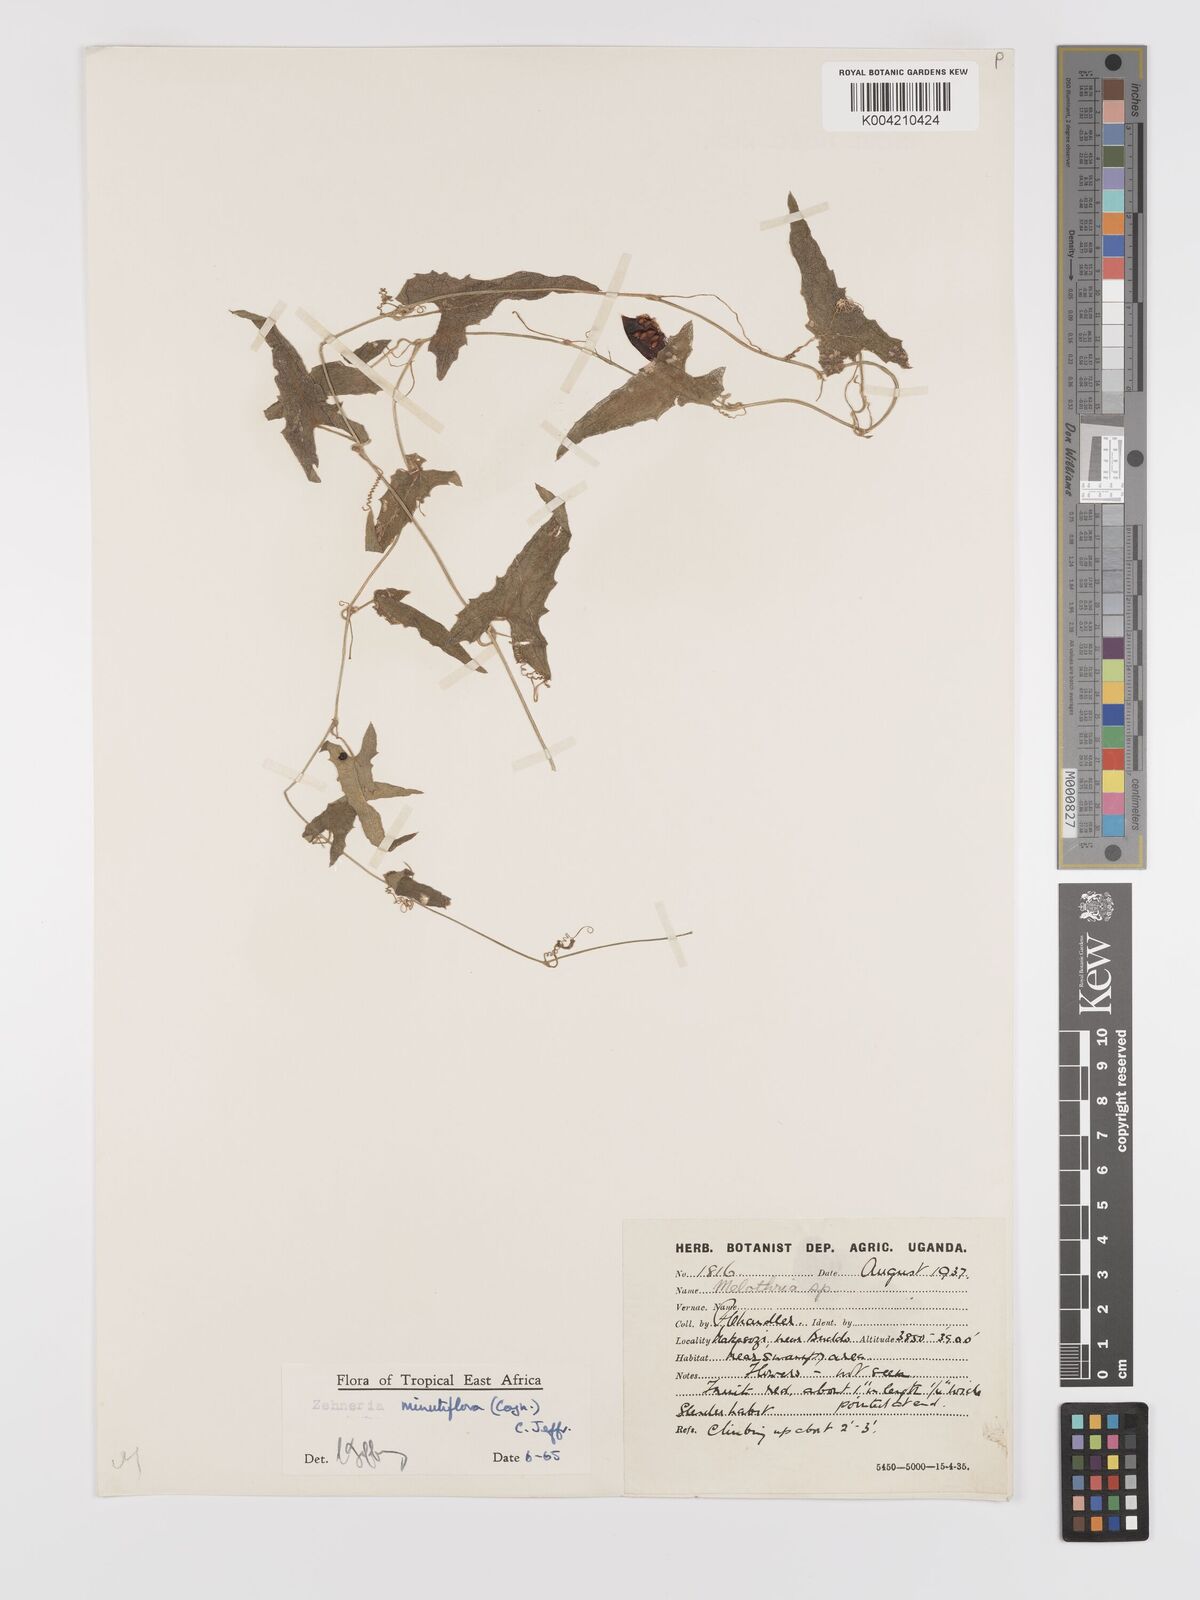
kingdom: Plantae
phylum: Tracheophyta
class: Magnoliopsida
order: Cucurbitales
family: Cucurbitaceae
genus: Zehneria
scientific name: Zehneria minutiflora
